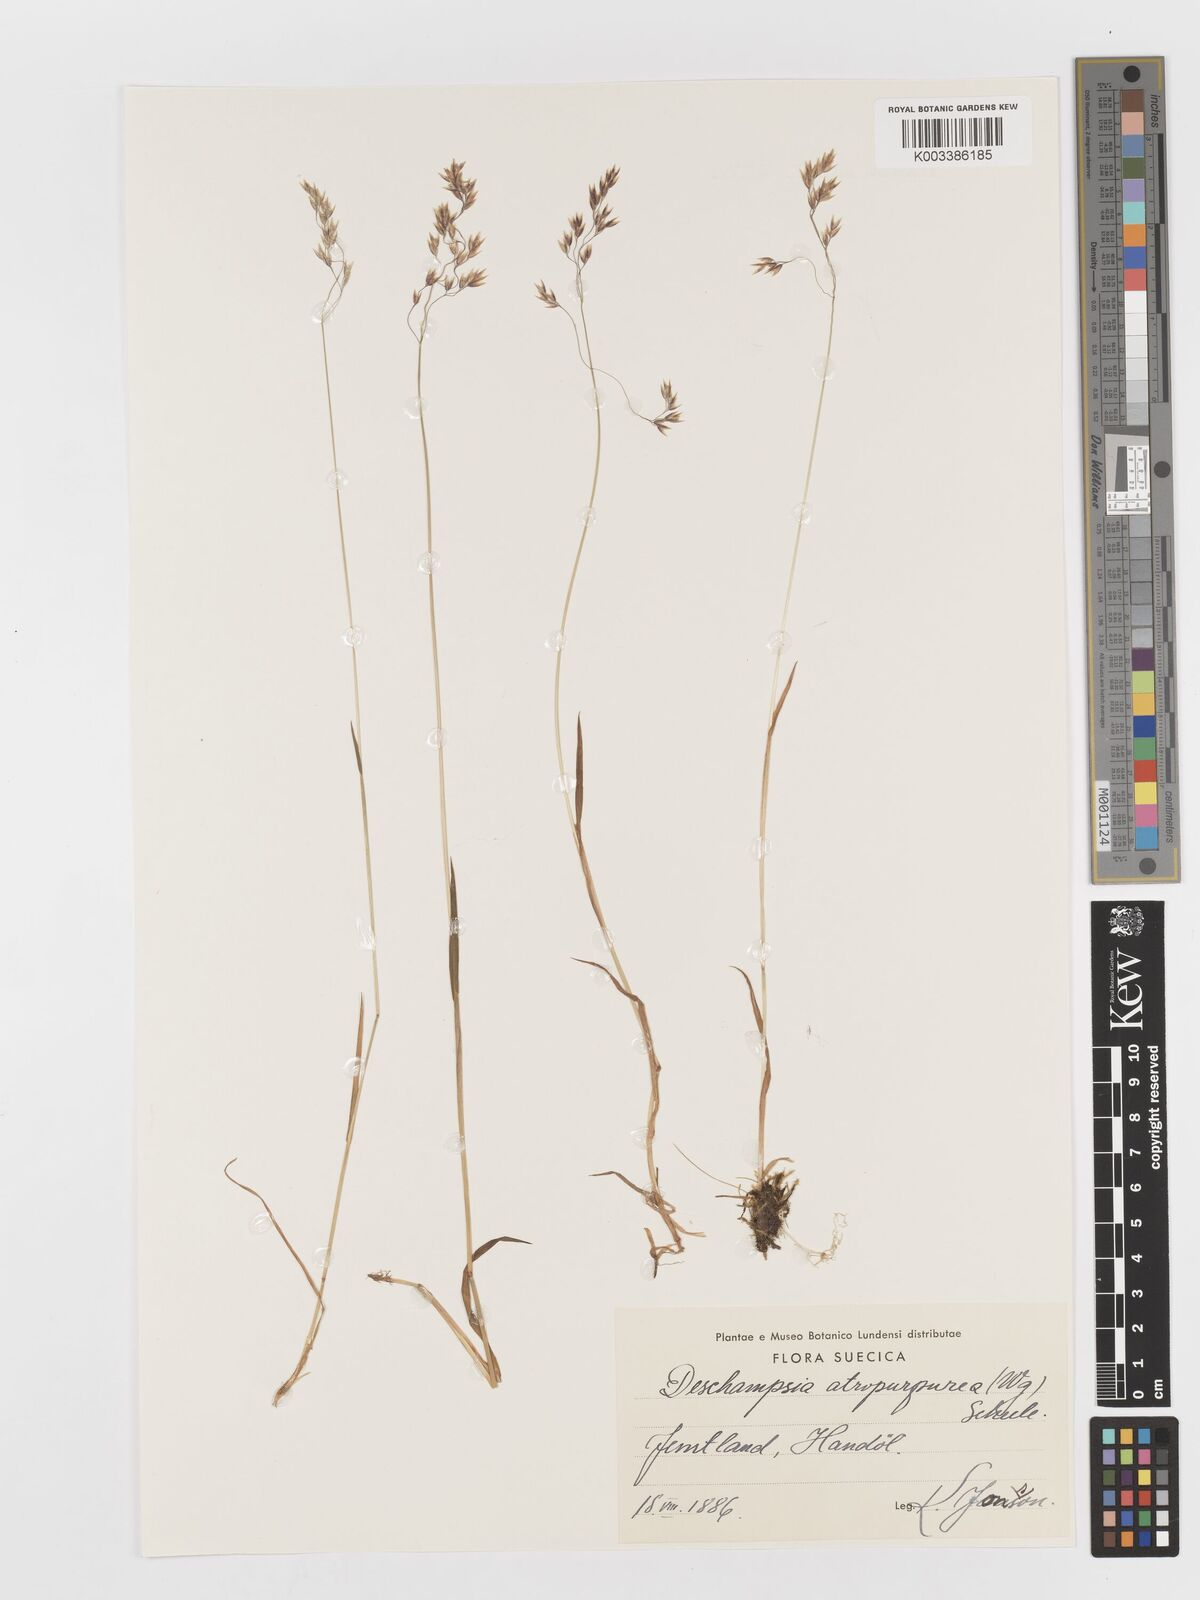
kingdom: Plantae
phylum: Tracheophyta
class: Liliopsida
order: Poales
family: Poaceae
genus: Vahlodea
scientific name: Vahlodea atropurpurea
